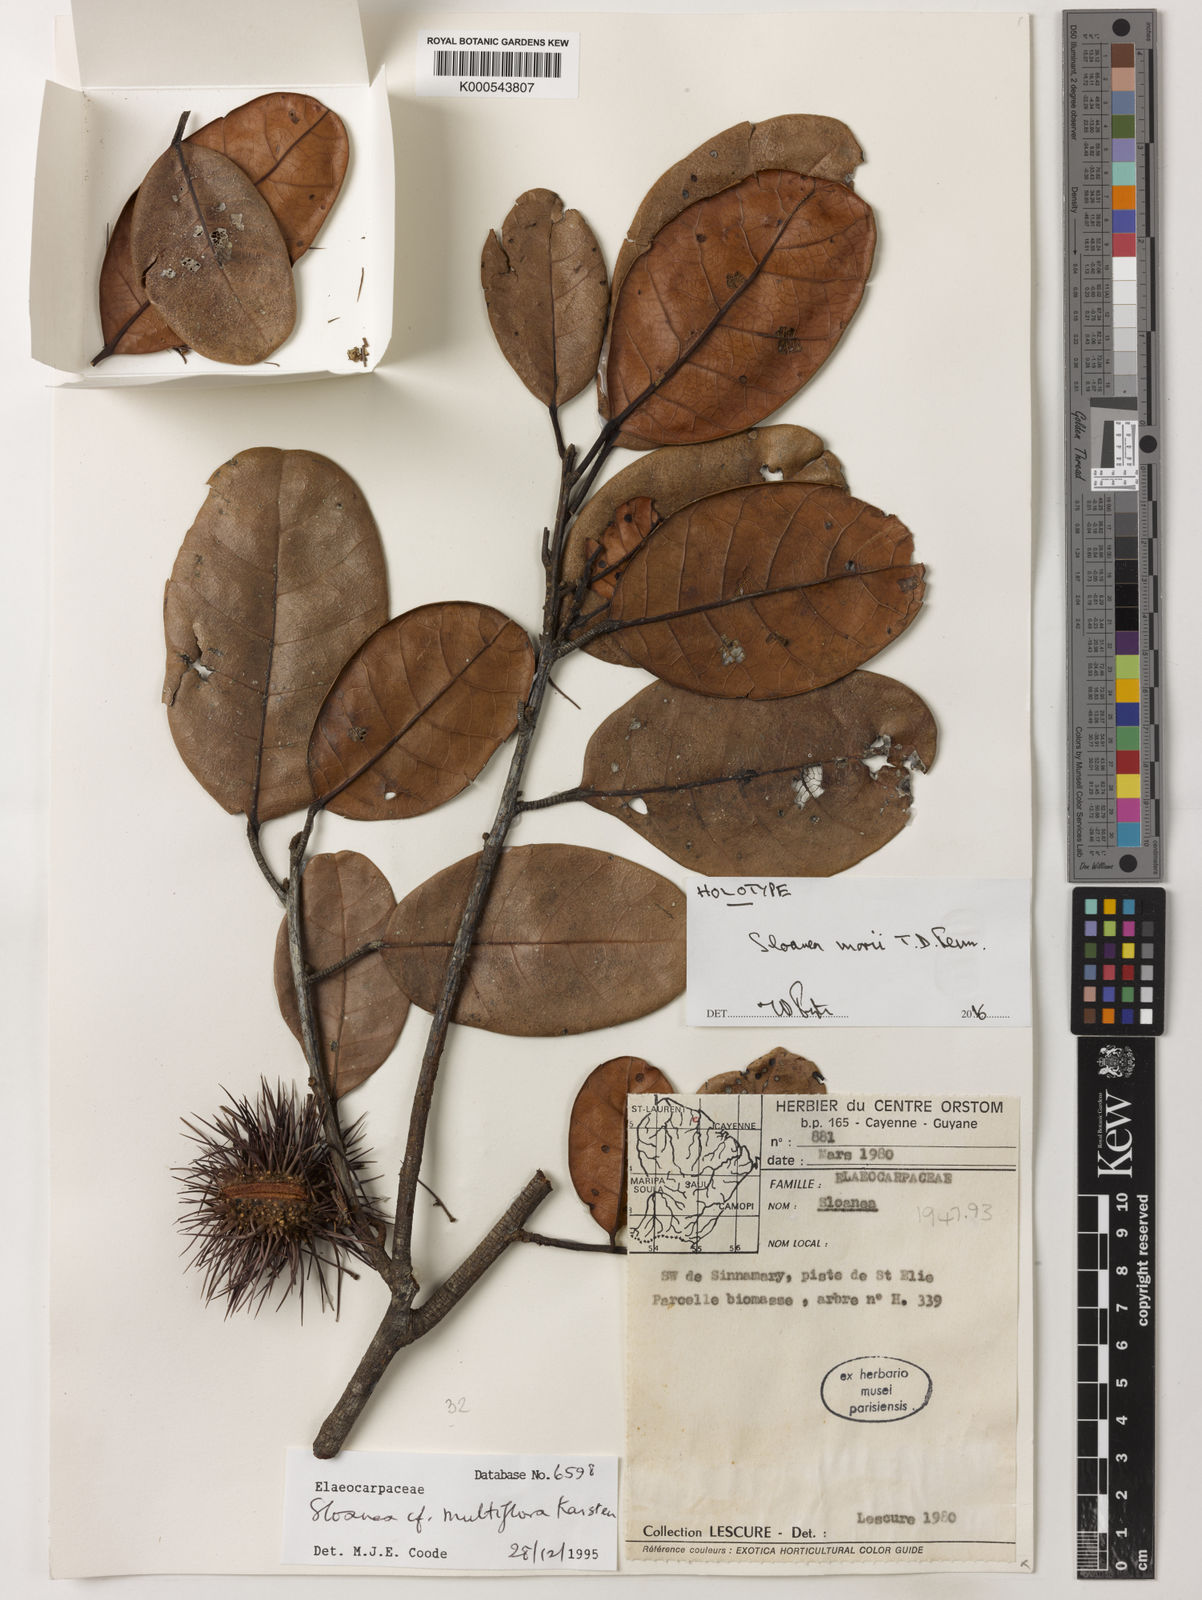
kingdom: Plantae
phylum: Tracheophyta
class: Magnoliopsida
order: Oxalidales
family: Elaeocarpaceae
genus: Sloanea
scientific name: Sloanea morii
